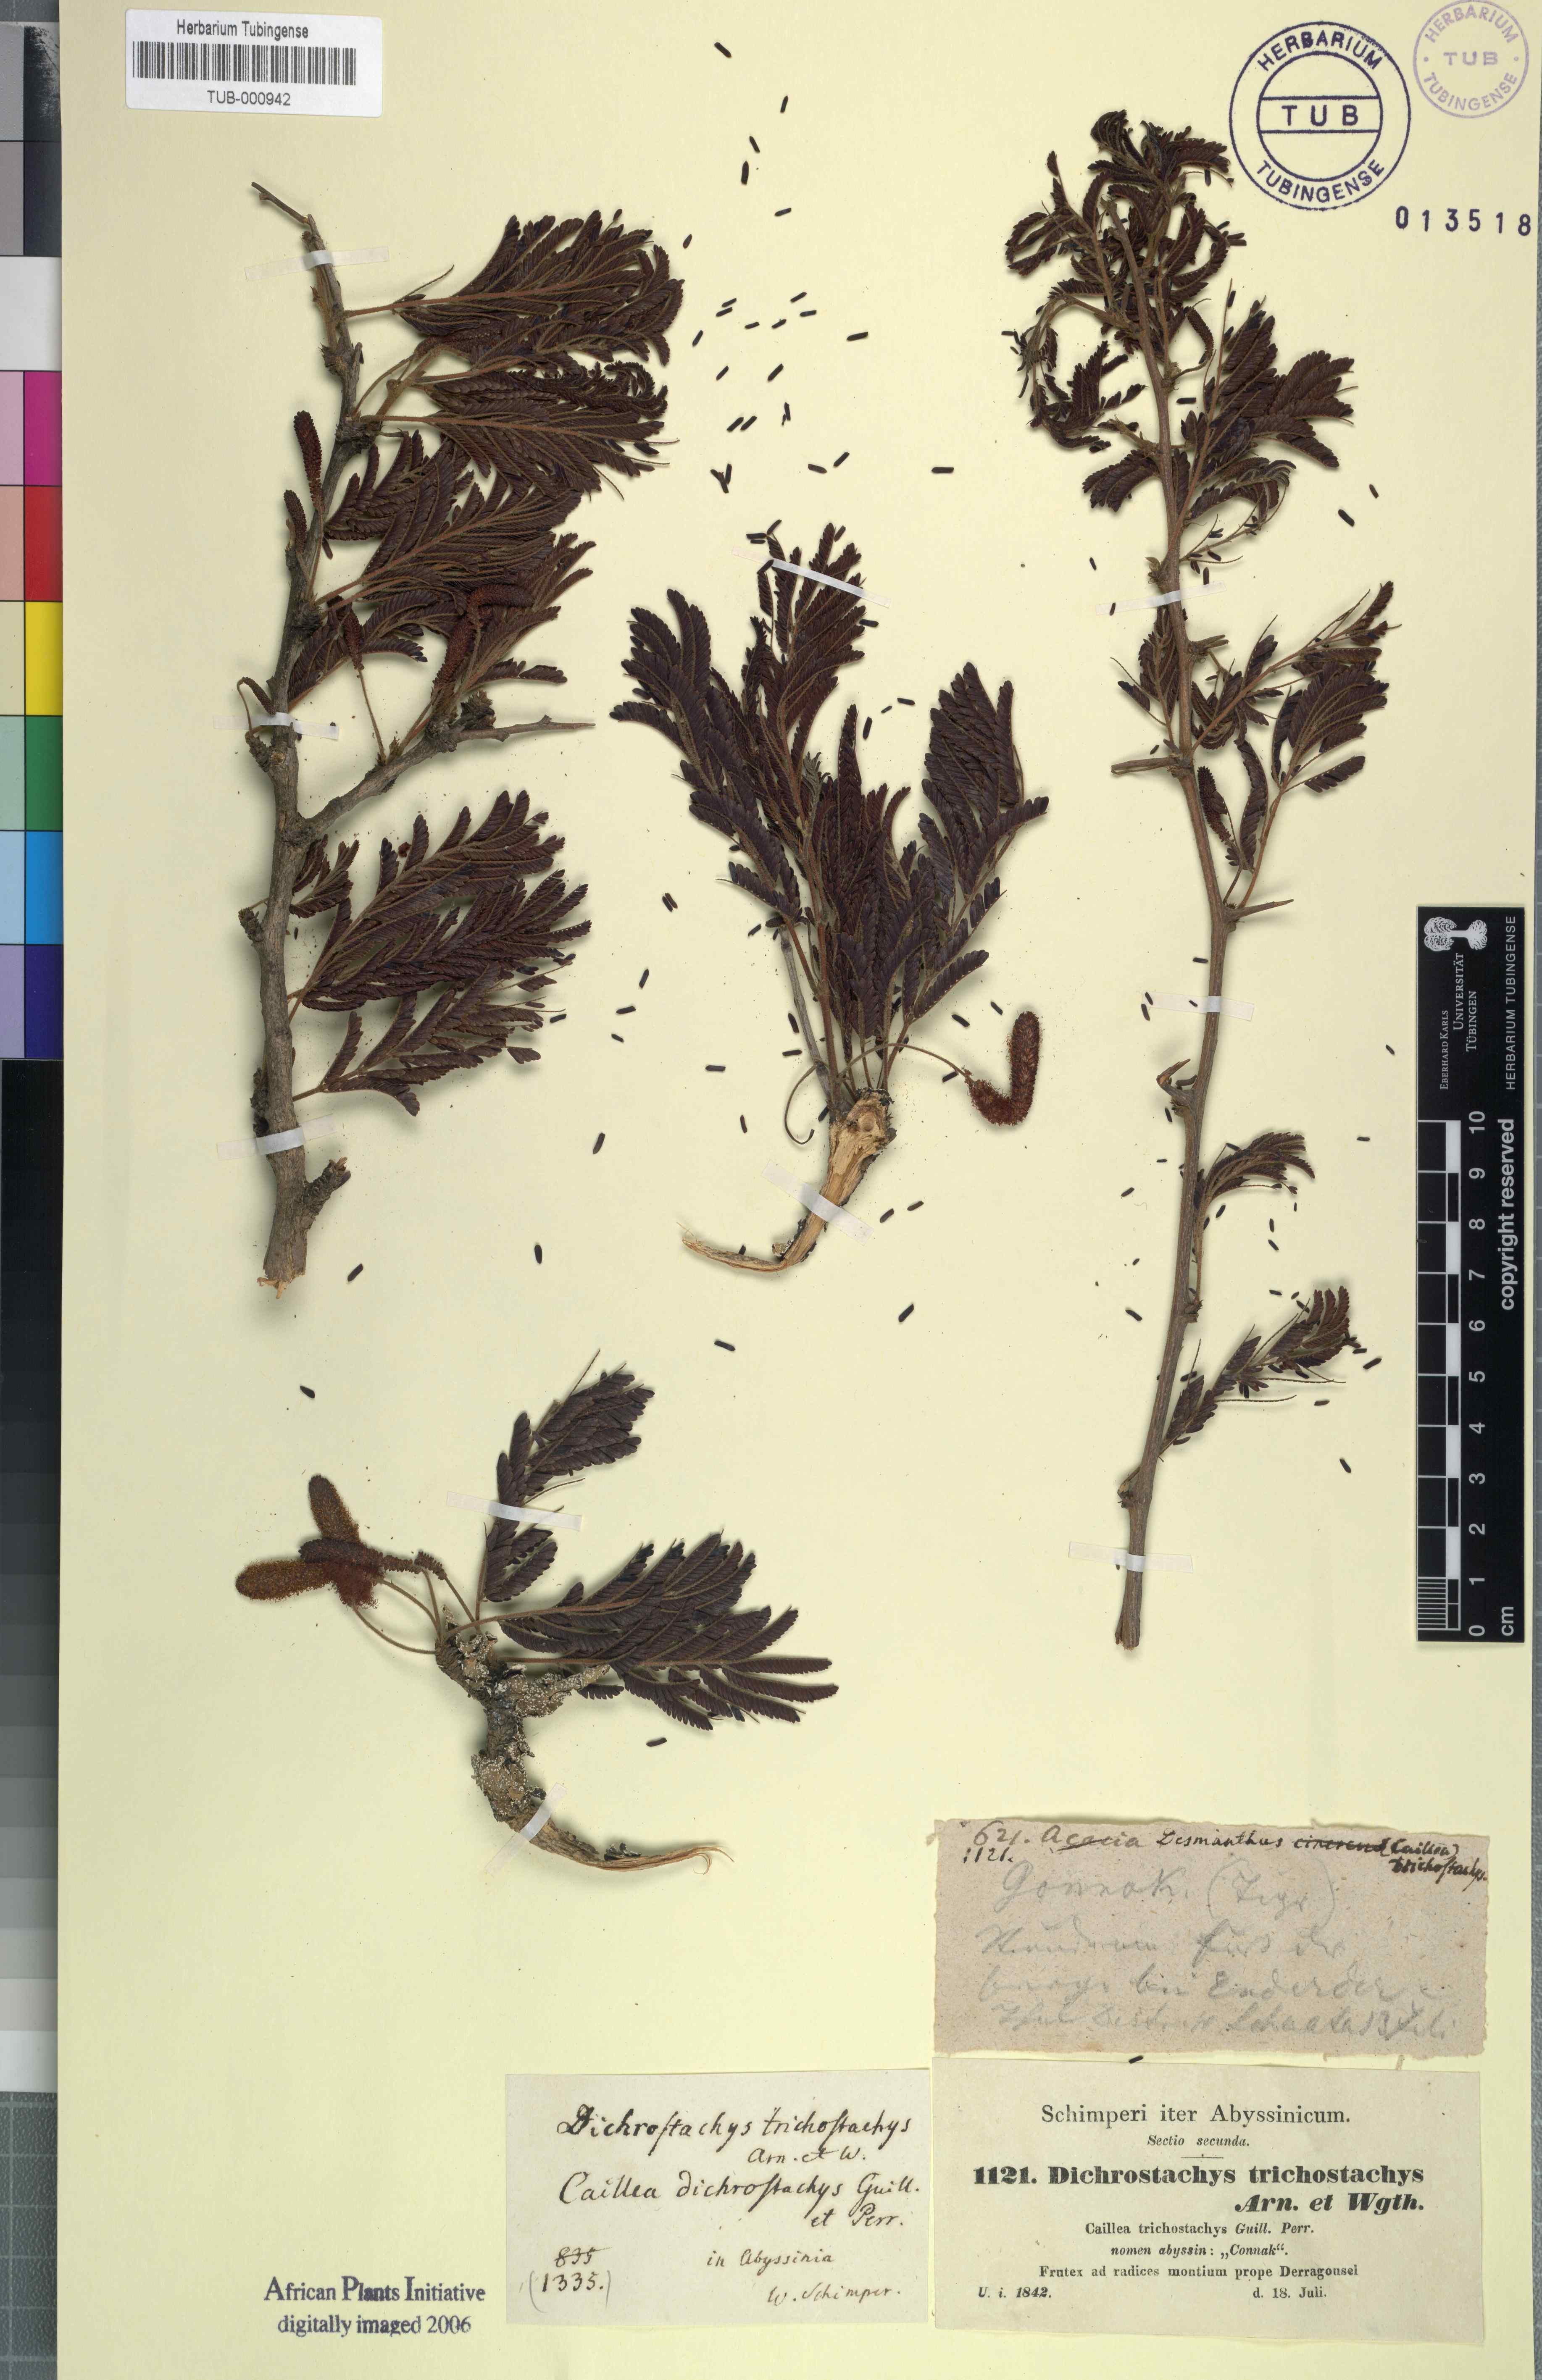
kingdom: Plantae
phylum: Tracheophyta
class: Magnoliopsida
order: Fabales
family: Fabaceae
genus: Dichrostachys
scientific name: Dichrostachys cinerea
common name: Sicklebush
